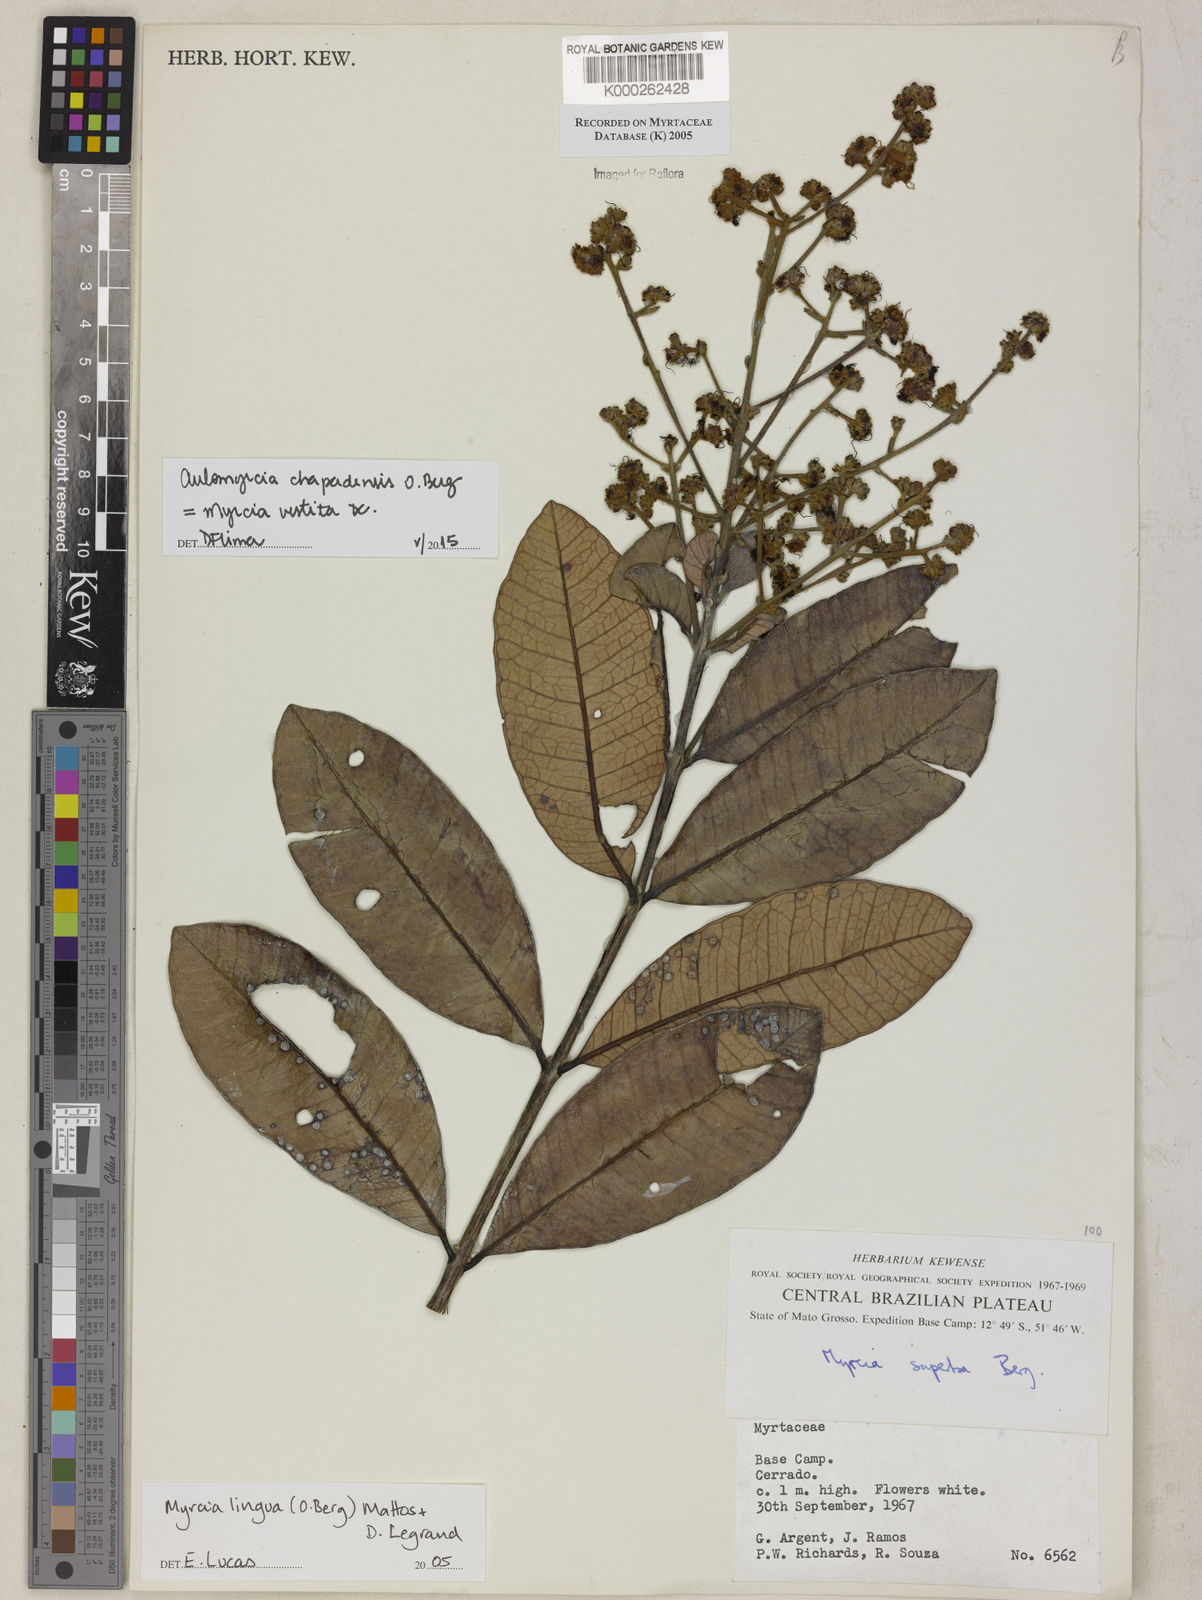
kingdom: Plantae
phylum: Tracheophyta
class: Magnoliopsida
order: Myrtales
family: Myrtaceae
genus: Myrcia
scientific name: Myrcia guianensis
